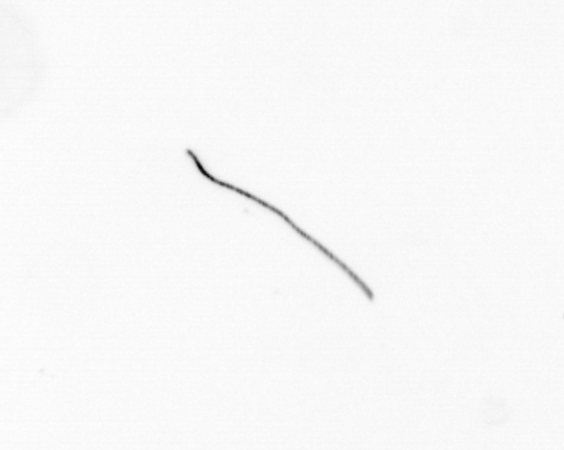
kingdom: Chromista
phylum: Ochrophyta
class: Bacillariophyceae
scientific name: Bacillariophyceae
